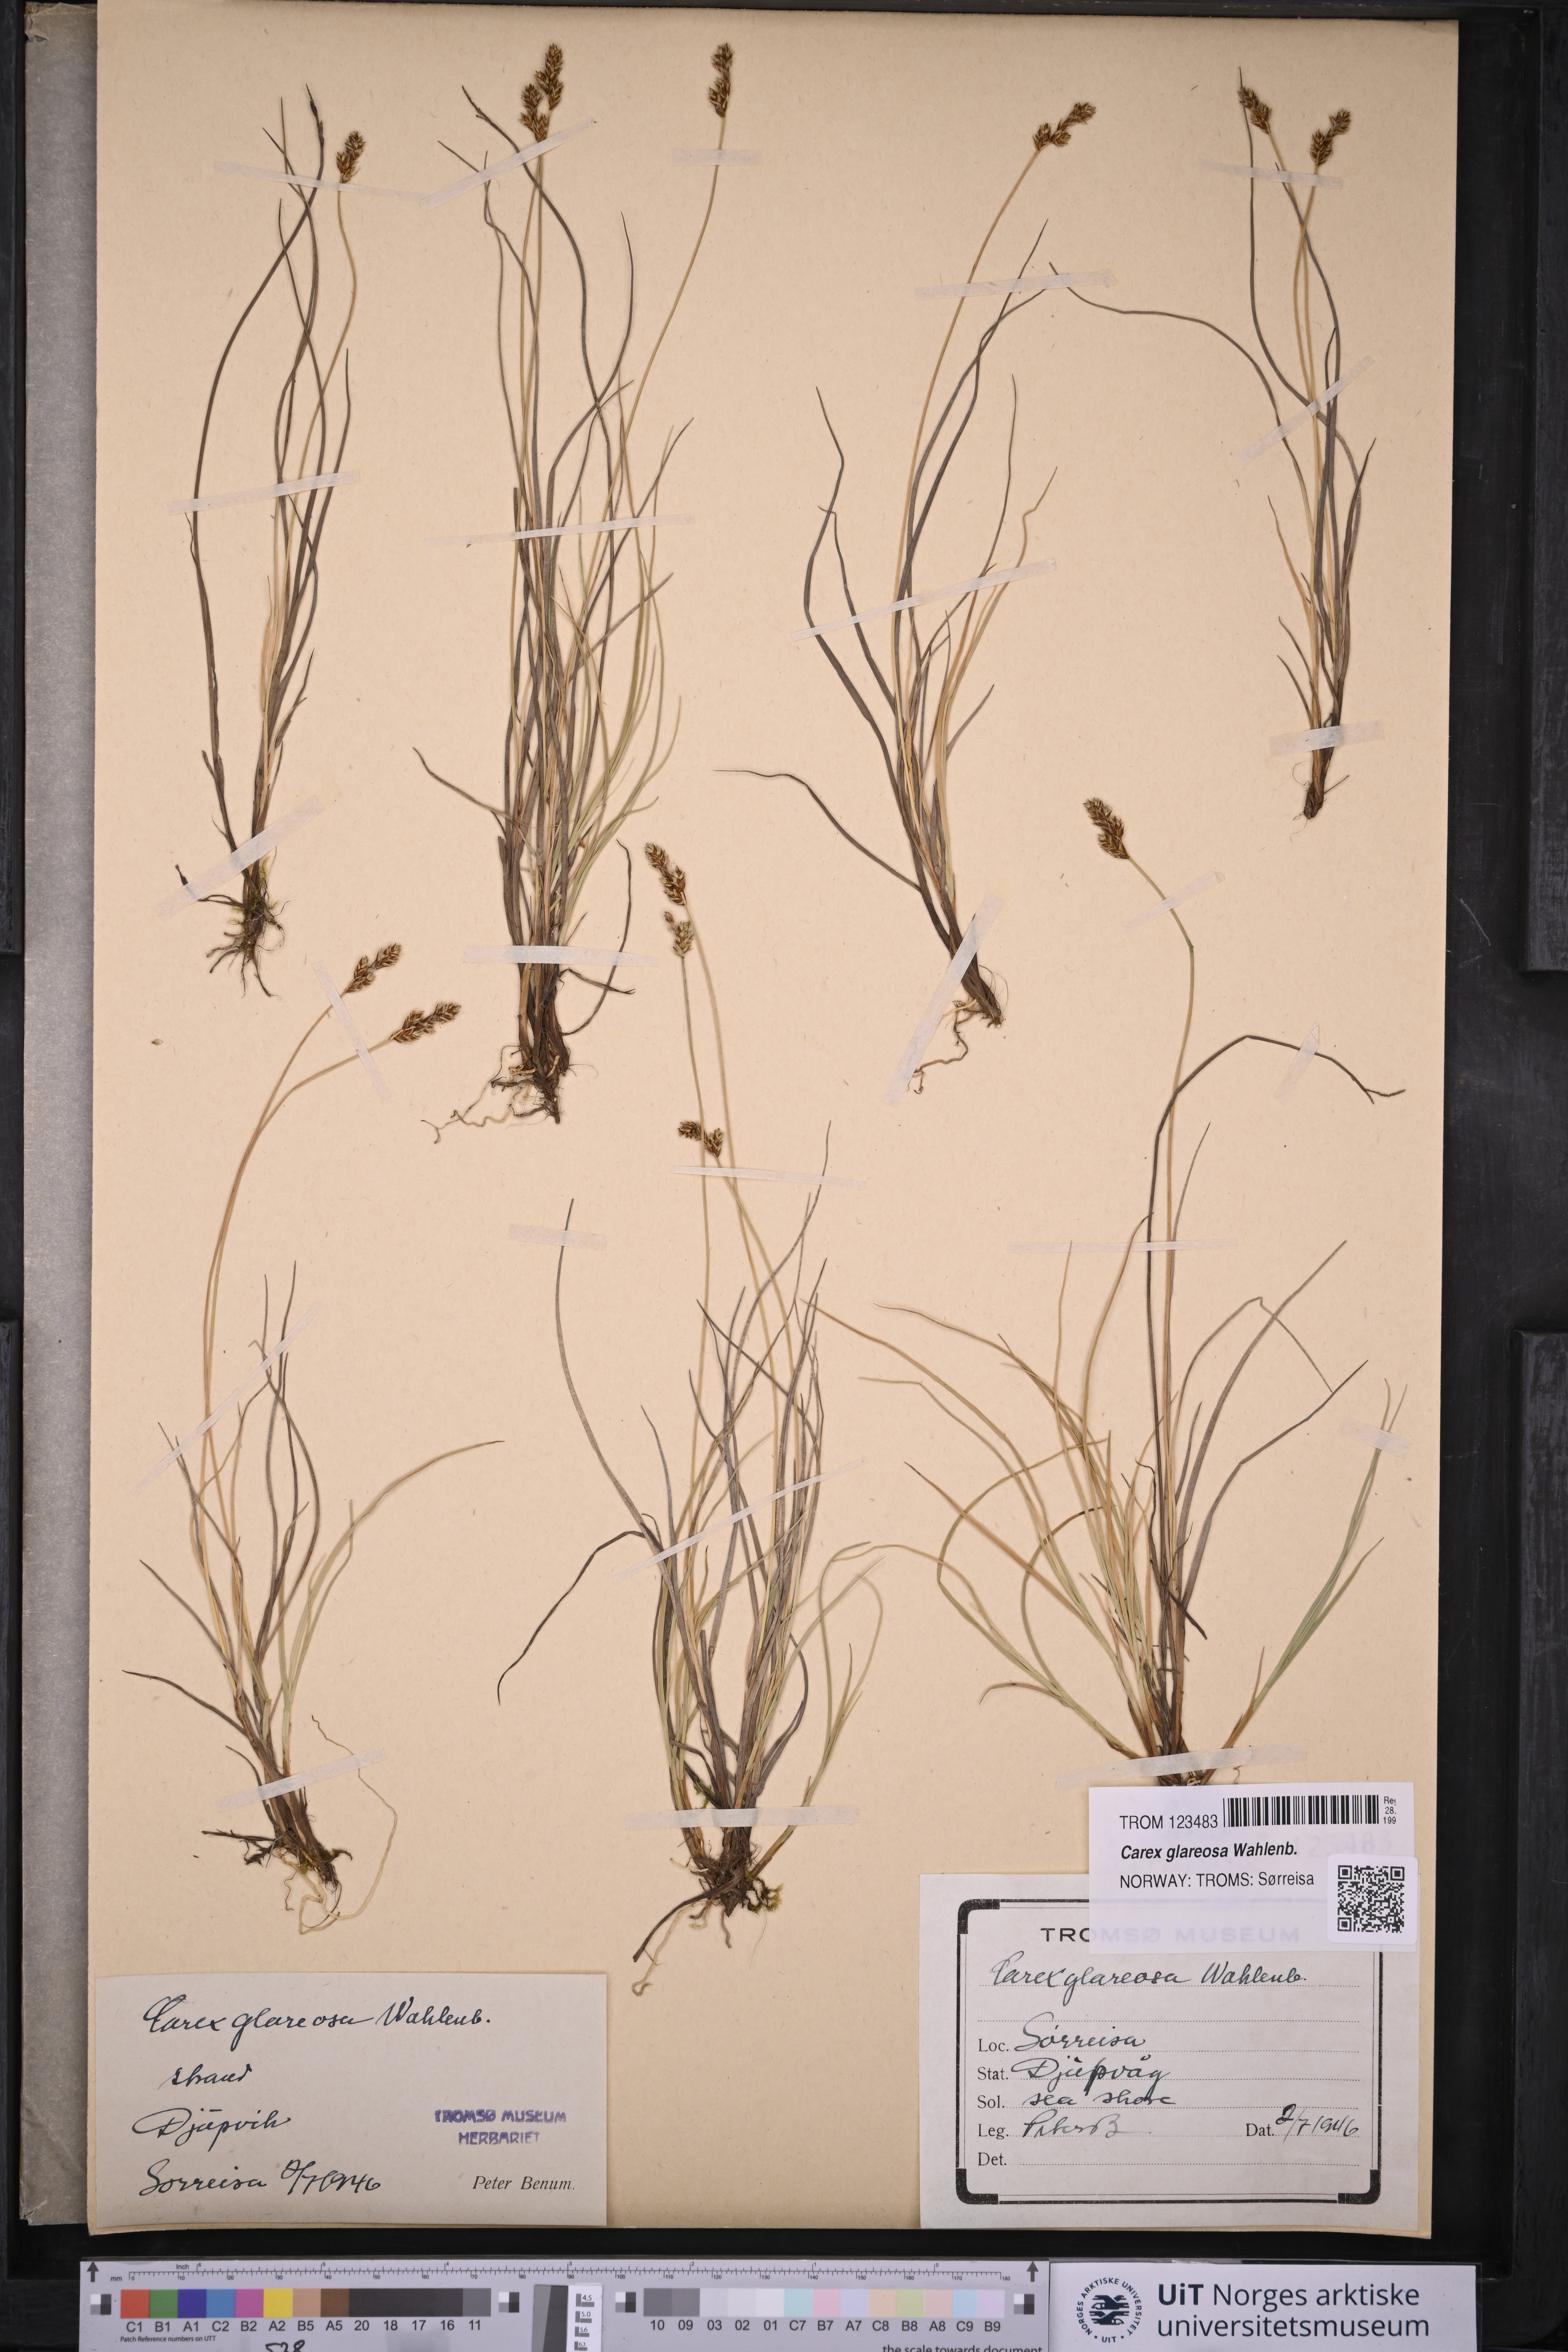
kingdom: Plantae
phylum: Tracheophyta
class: Liliopsida
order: Poales
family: Cyperaceae
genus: Carex
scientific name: Carex glareosa
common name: Clustered sedge
